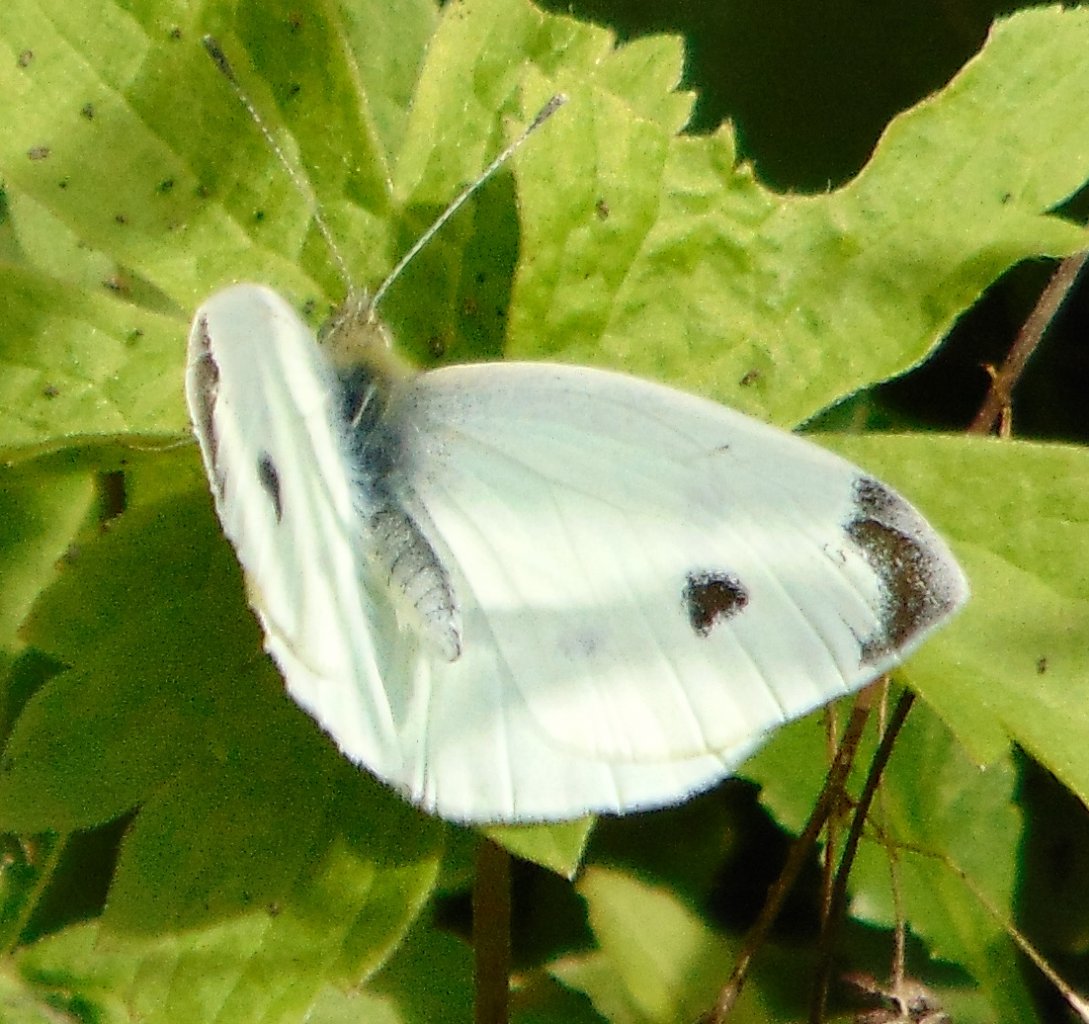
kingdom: Animalia
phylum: Arthropoda
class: Insecta
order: Lepidoptera
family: Pieridae
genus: Pieris
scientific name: Pieris rapae
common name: Cabbage White
